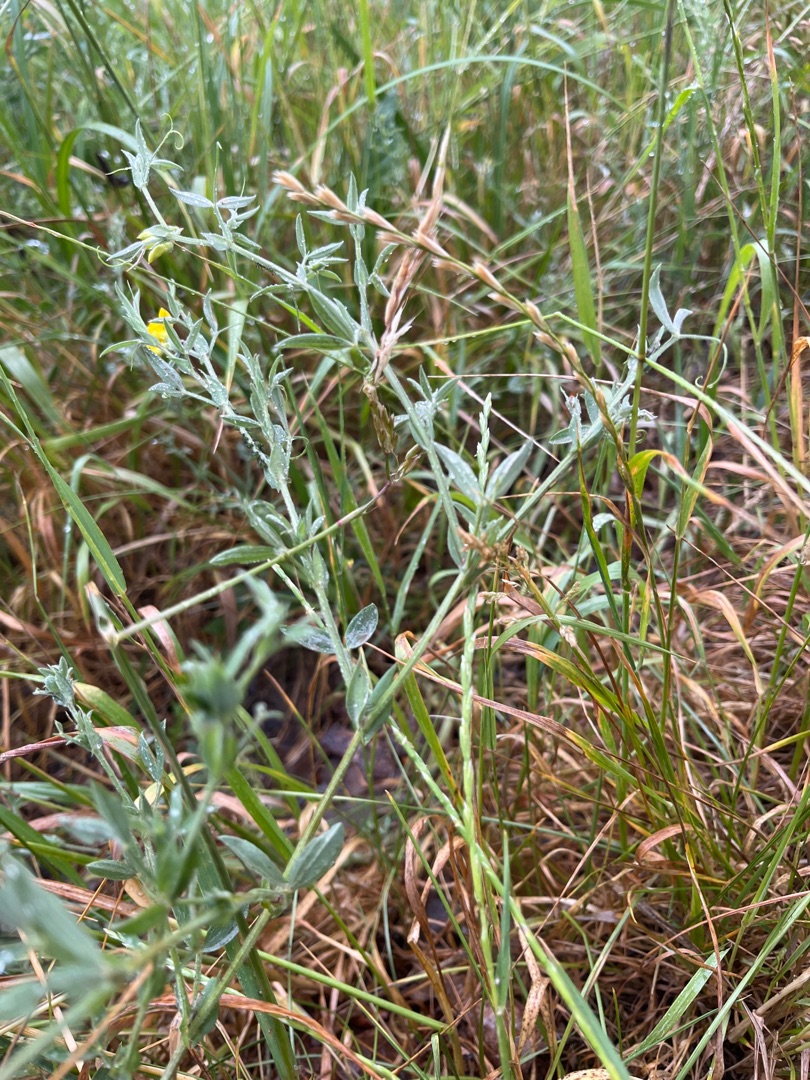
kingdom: Plantae
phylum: Tracheophyta
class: Magnoliopsida
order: Fabales
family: Fabaceae
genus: Lathyrus
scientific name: Lathyrus pratensis
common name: Gul fladbælg
